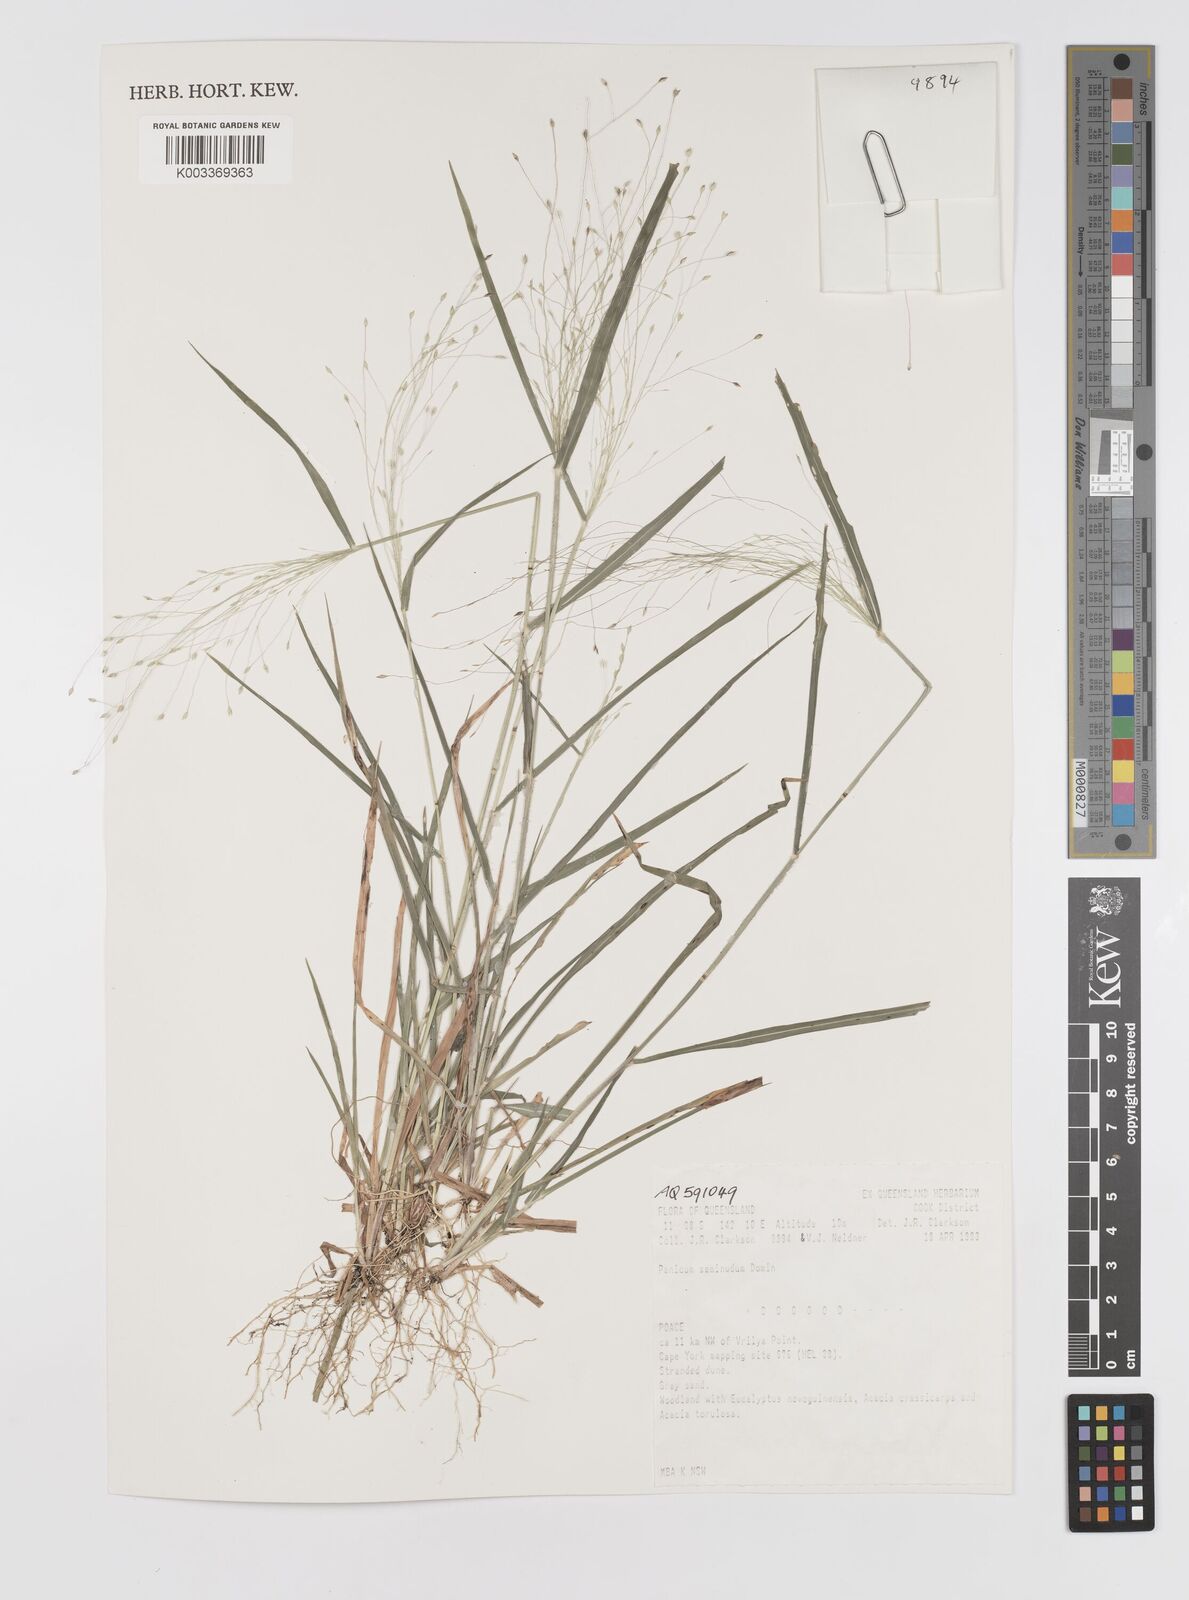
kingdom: Plantae
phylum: Tracheophyta
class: Liliopsida
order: Poales
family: Poaceae
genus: Panicum
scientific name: Panicum seminudum
